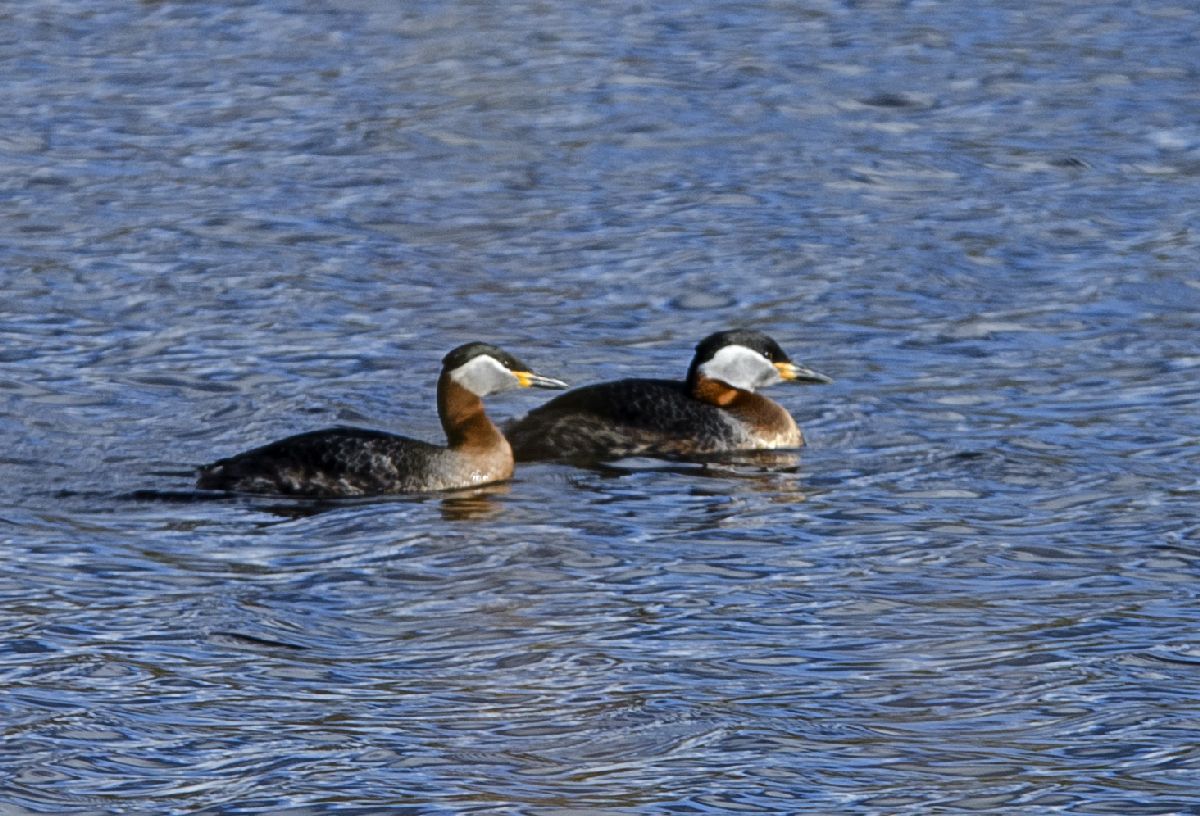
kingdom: Animalia
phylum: Chordata
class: Aves
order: Podicipediformes
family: Podicipedidae
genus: Podiceps
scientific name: Podiceps grisegena
